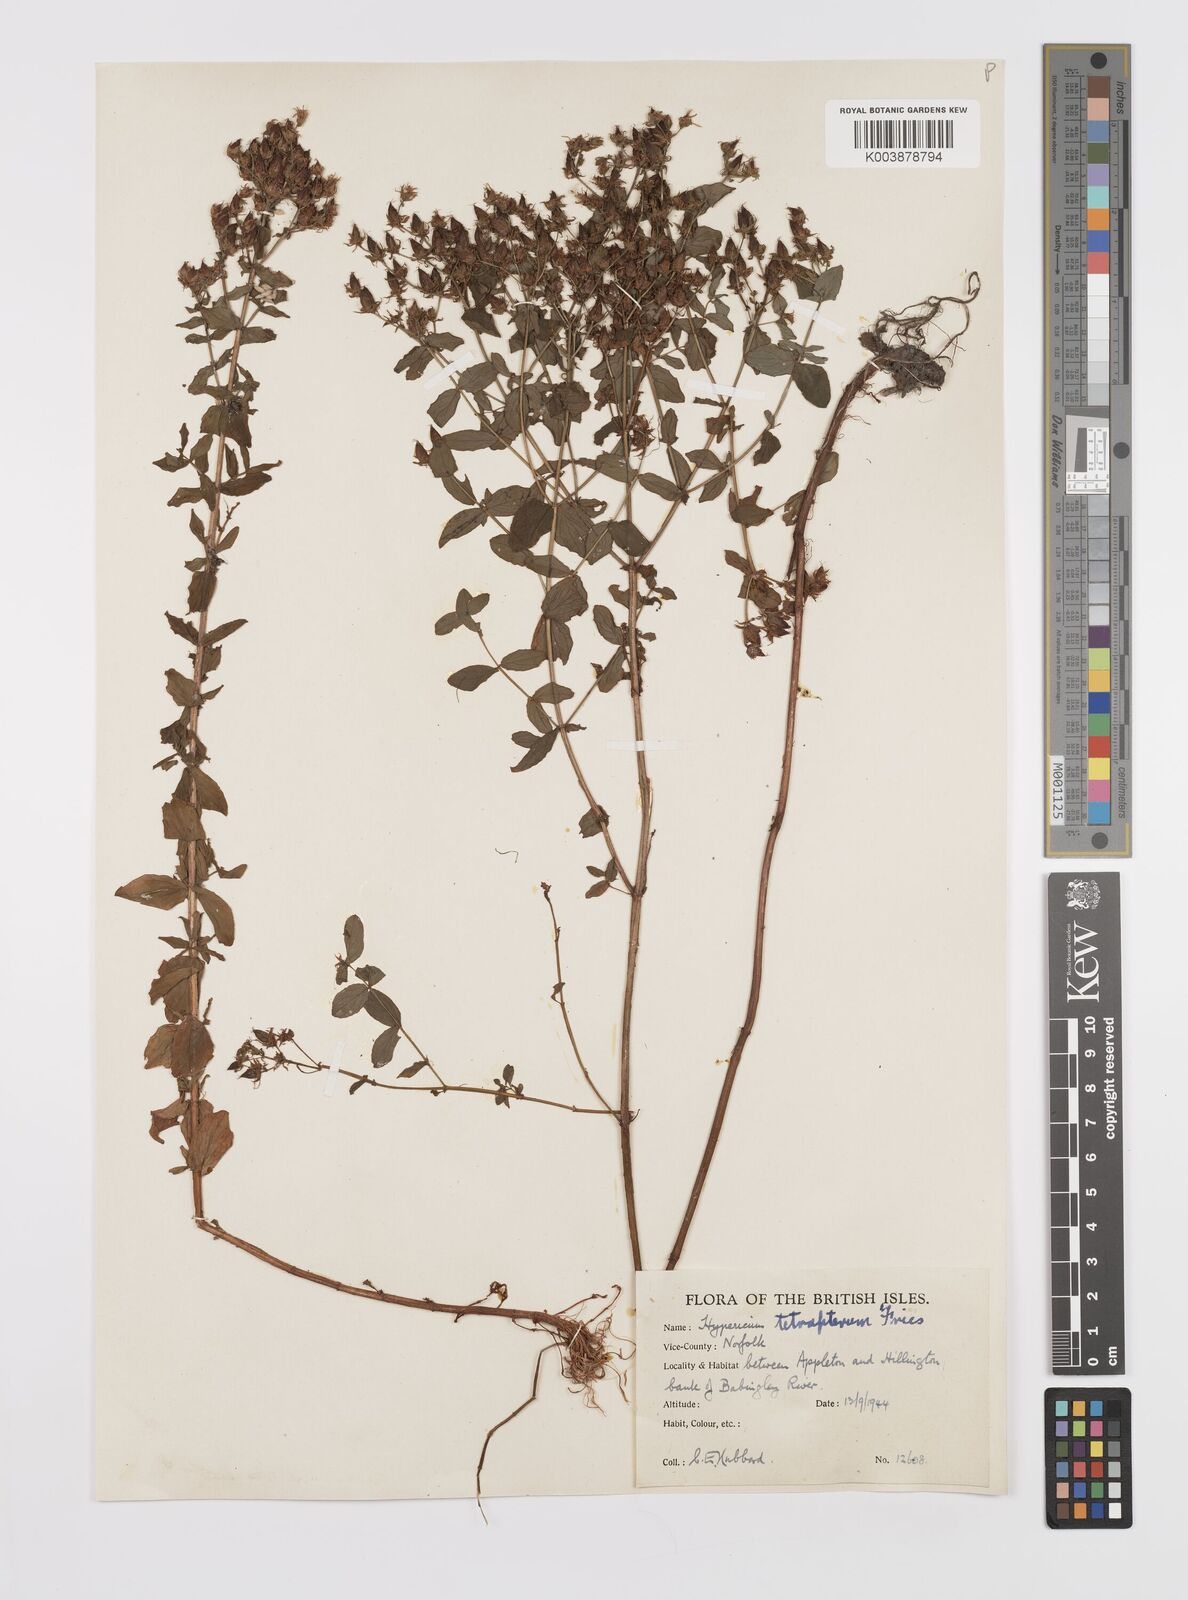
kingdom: Plantae
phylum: Tracheophyta
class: Magnoliopsida
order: Malpighiales
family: Hypericaceae
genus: Hypericum
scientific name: Hypericum tetrapterum
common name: Square-stalked st. john's-wort
